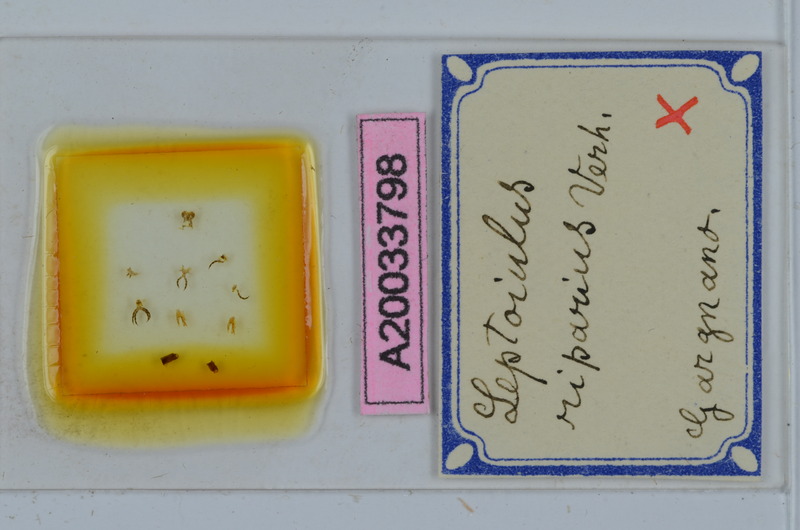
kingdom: Animalia
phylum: Arthropoda
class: Diplopoda
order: Julida
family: Julidae
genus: Leptoiulus
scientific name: Leptoiulus riparius
